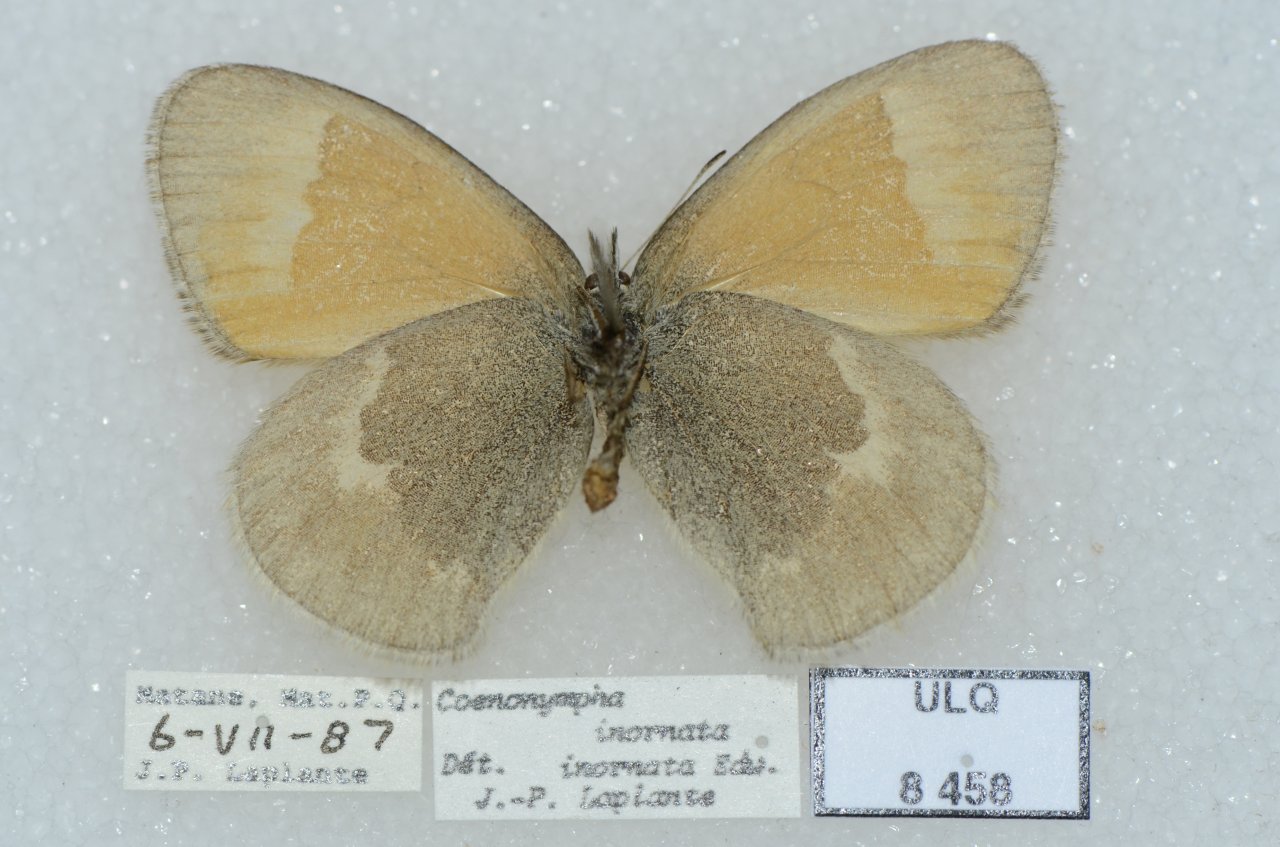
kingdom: Animalia
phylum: Arthropoda
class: Insecta
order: Lepidoptera
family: Nymphalidae
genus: Coenonympha
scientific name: Coenonympha tullia
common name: Large Heath
